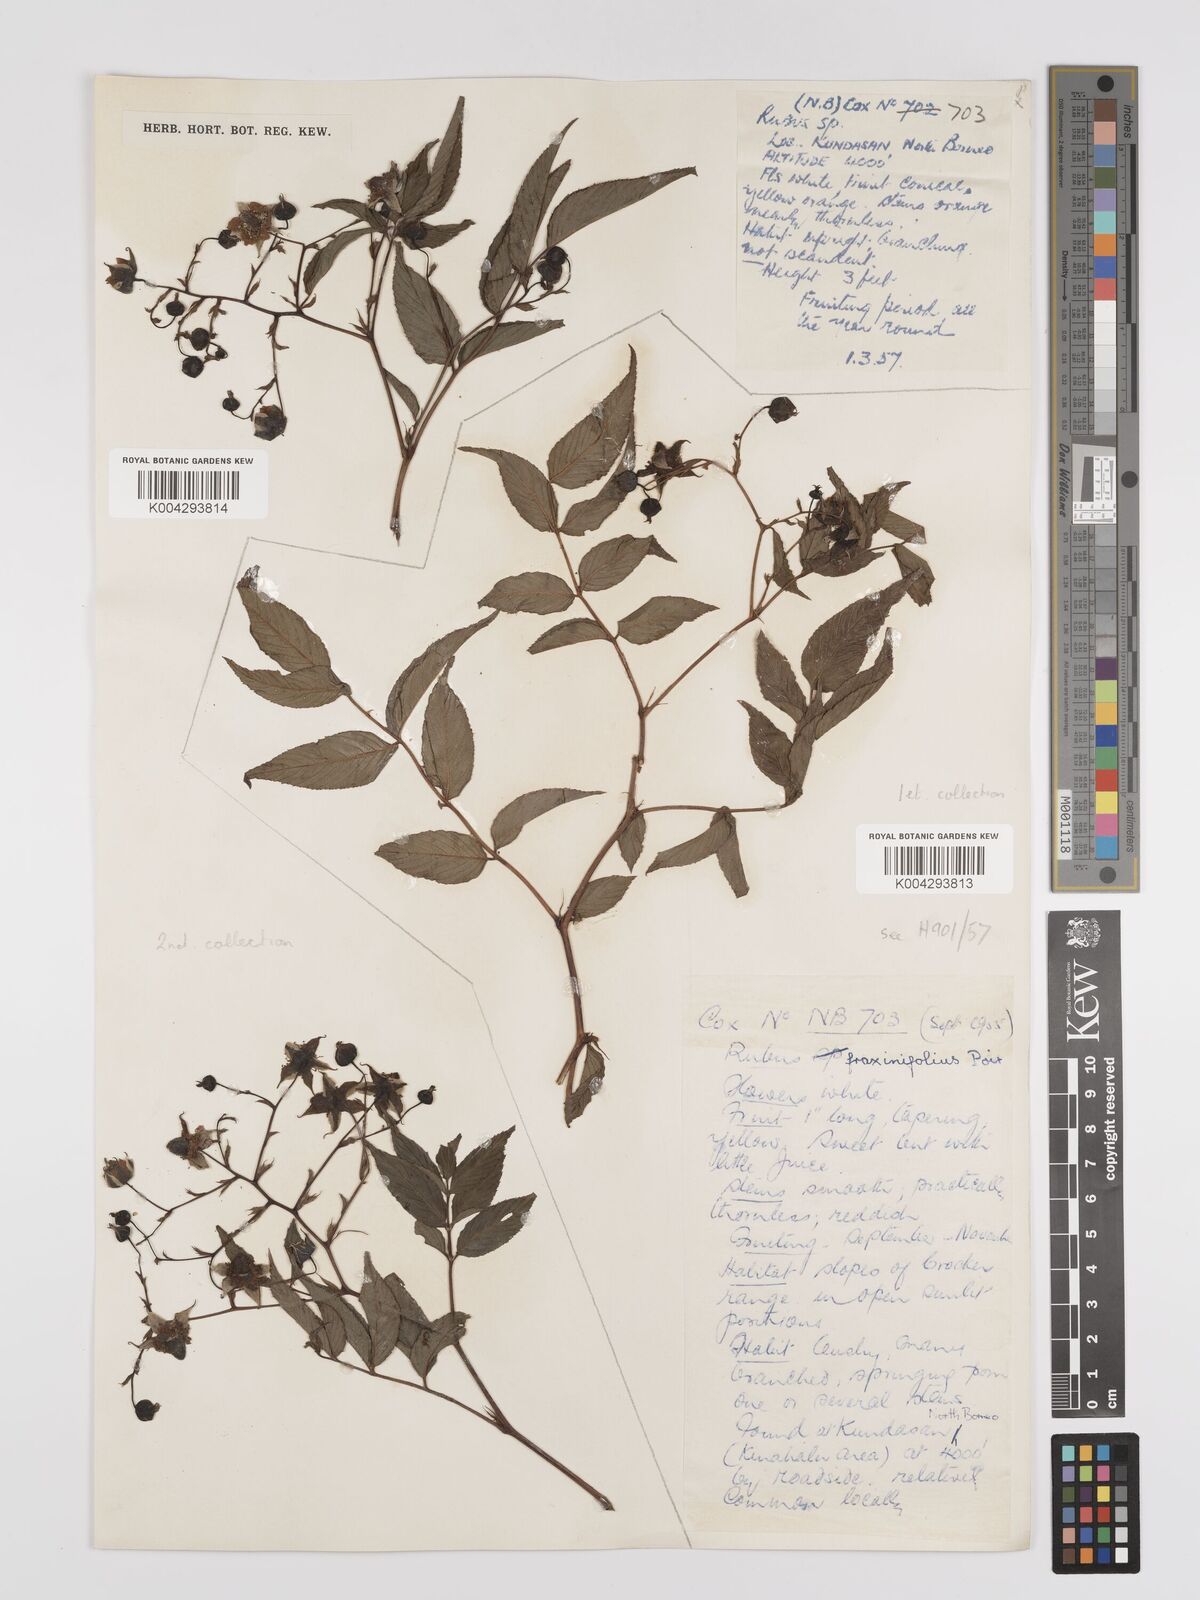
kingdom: Plantae
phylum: Tracheophyta
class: Magnoliopsida
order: Rosales
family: Rosaceae
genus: Rubus
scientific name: Rubus fraxinifolius
